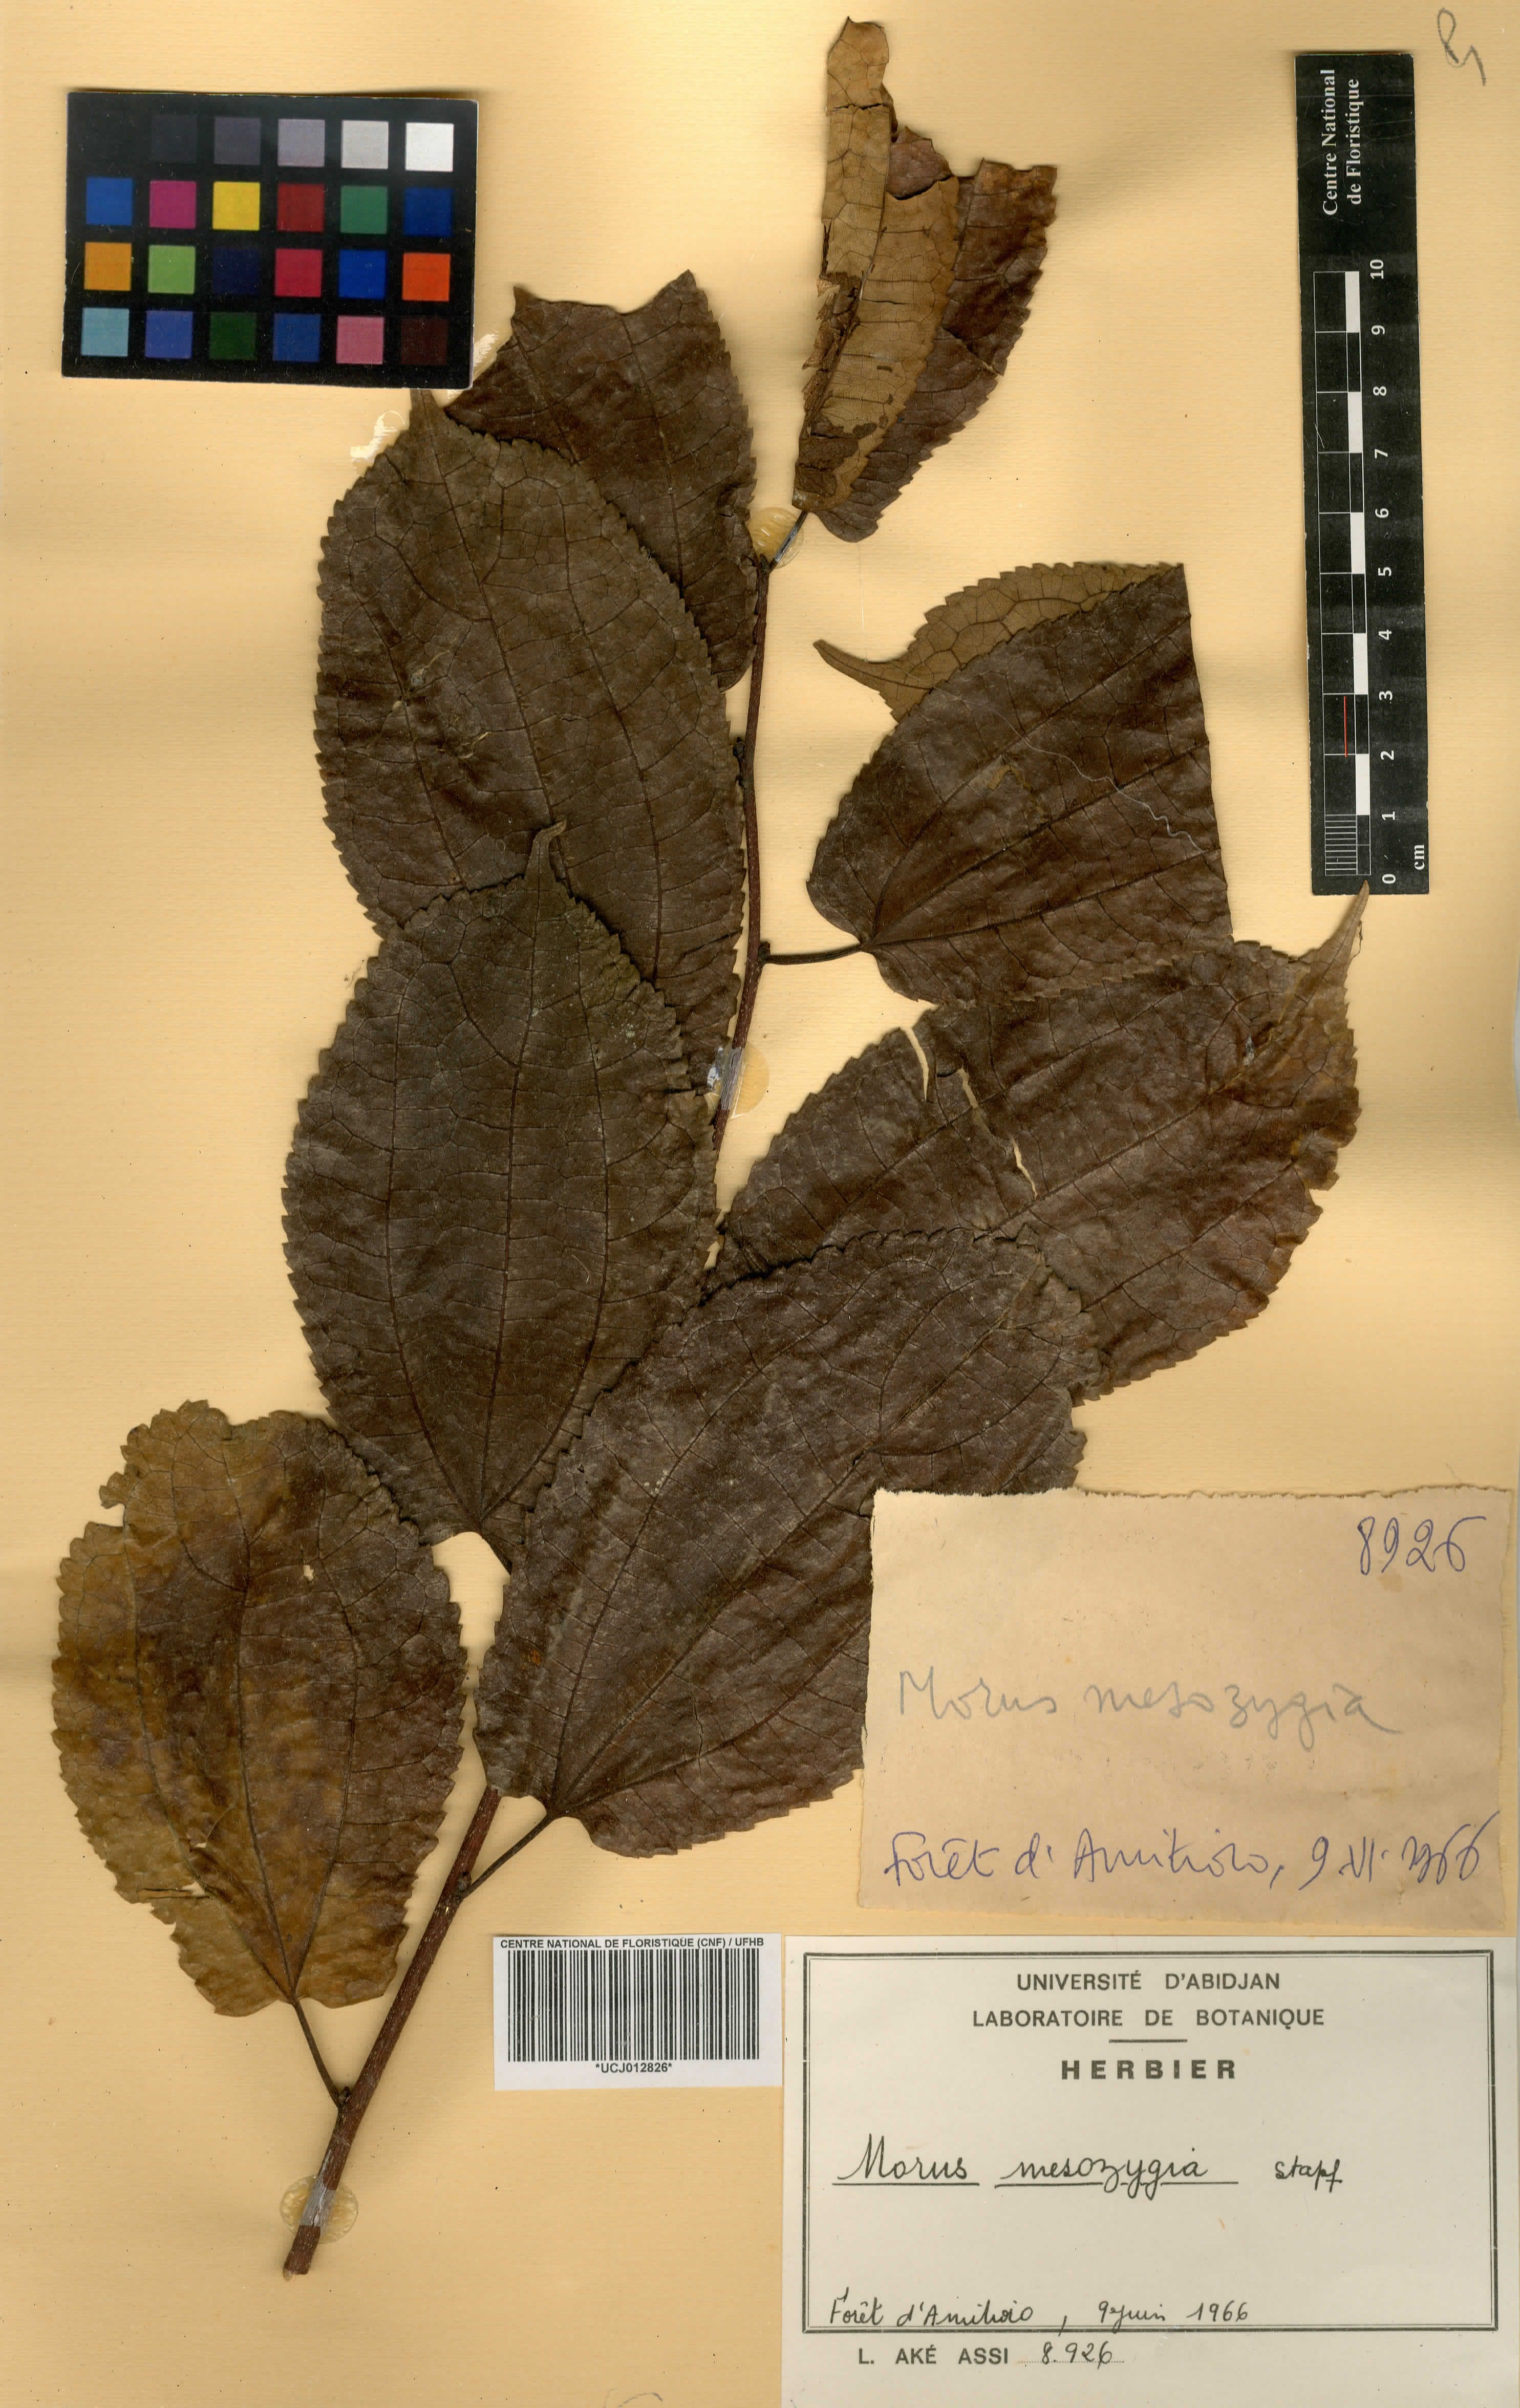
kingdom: Plantae
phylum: Tracheophyta
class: Magnoliopsida
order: Rosales
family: Moraceae
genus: Afromorus
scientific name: Afromorus mesozygia
